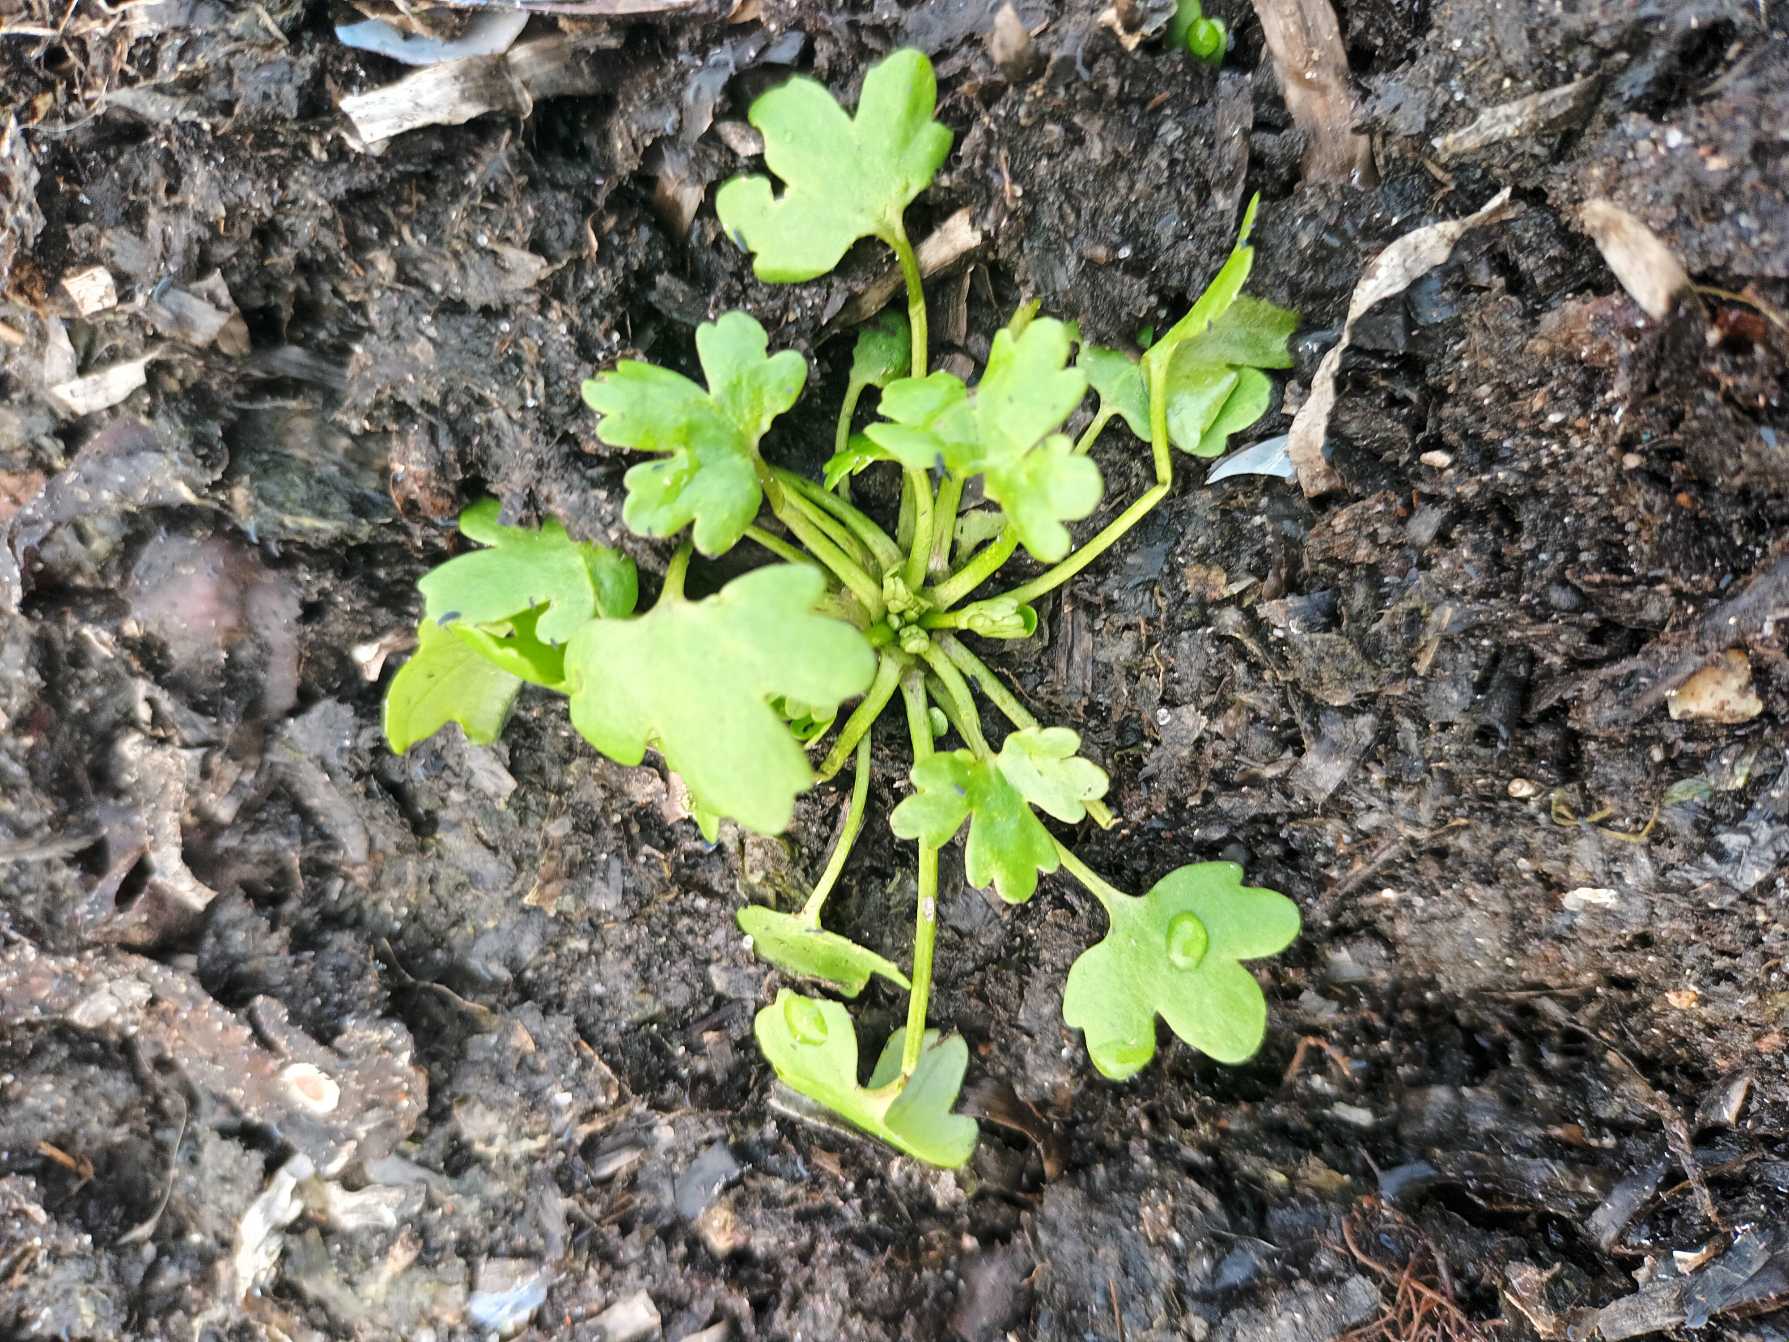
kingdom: Plantae
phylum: Tracheophyta
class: Magnoliopsida
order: Ranunculales
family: Ranunculaceae
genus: Ranunculus
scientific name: Ranunculus sceleratus
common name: Tigger-ranunkel
